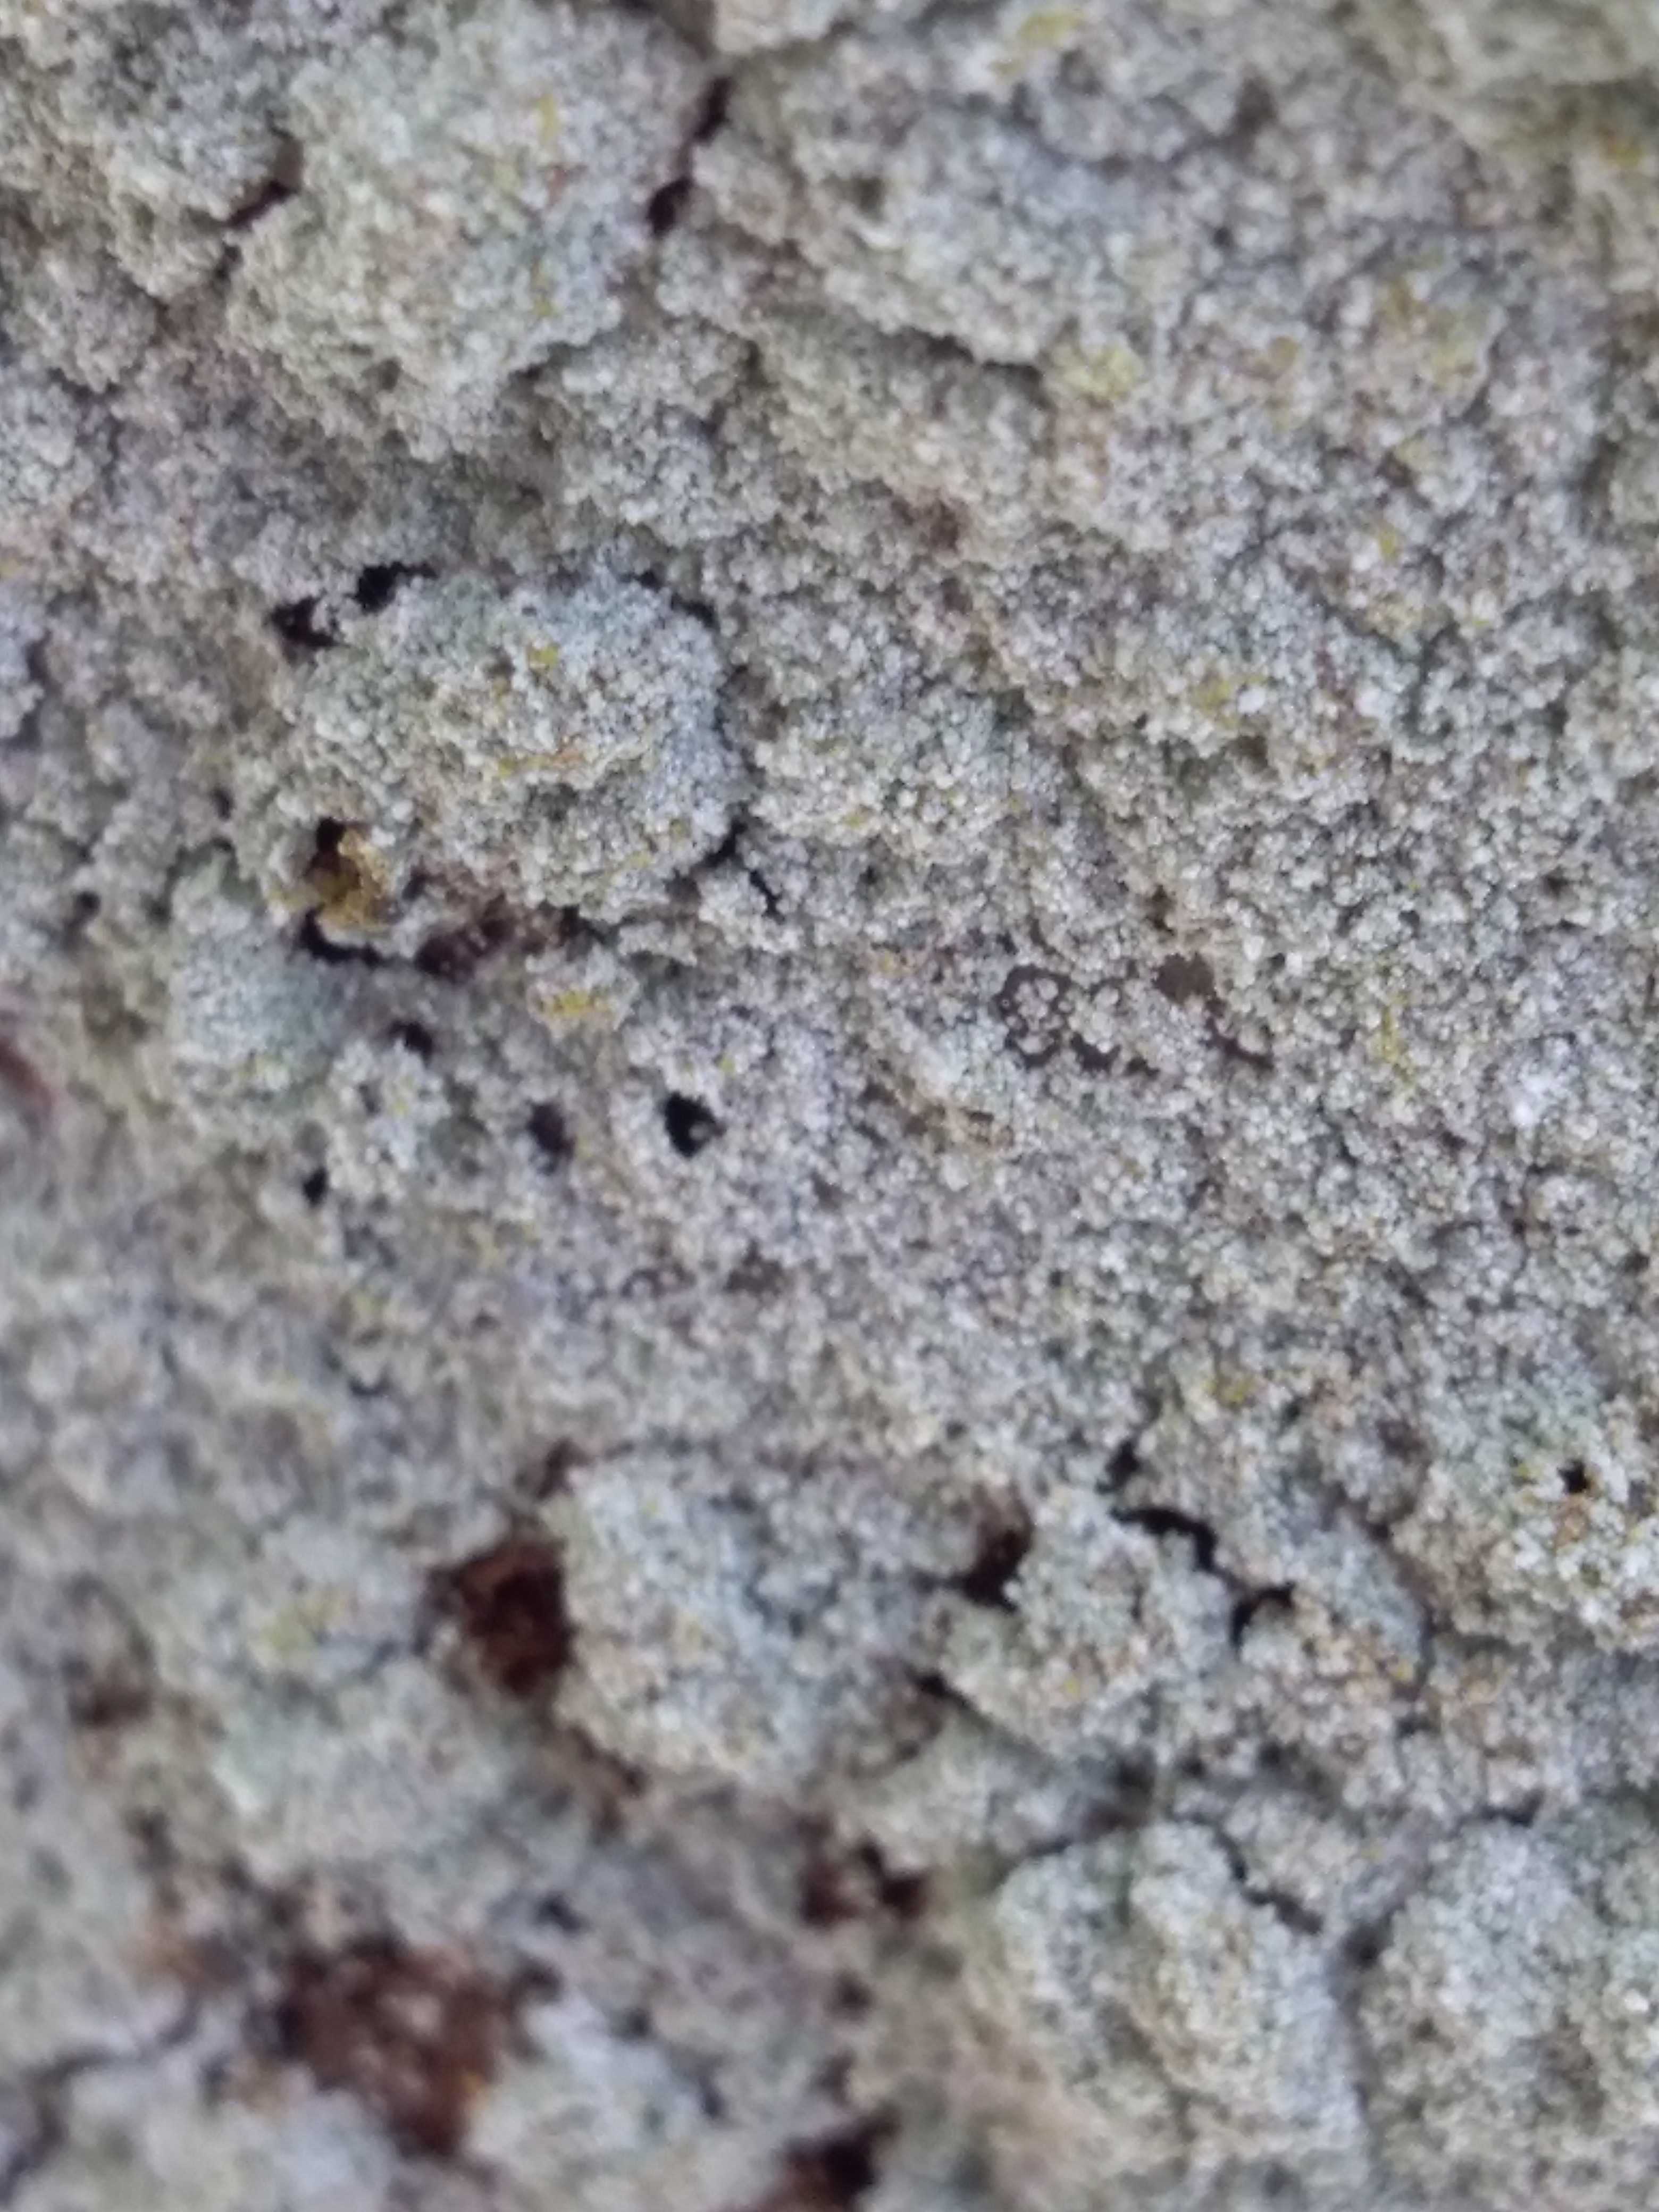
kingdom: Fungi
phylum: Ascomycota
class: Lecanoromycetes
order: Lecanorales
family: Stereocaulaceae
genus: Lepraria
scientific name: Lepraria
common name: støvlav
